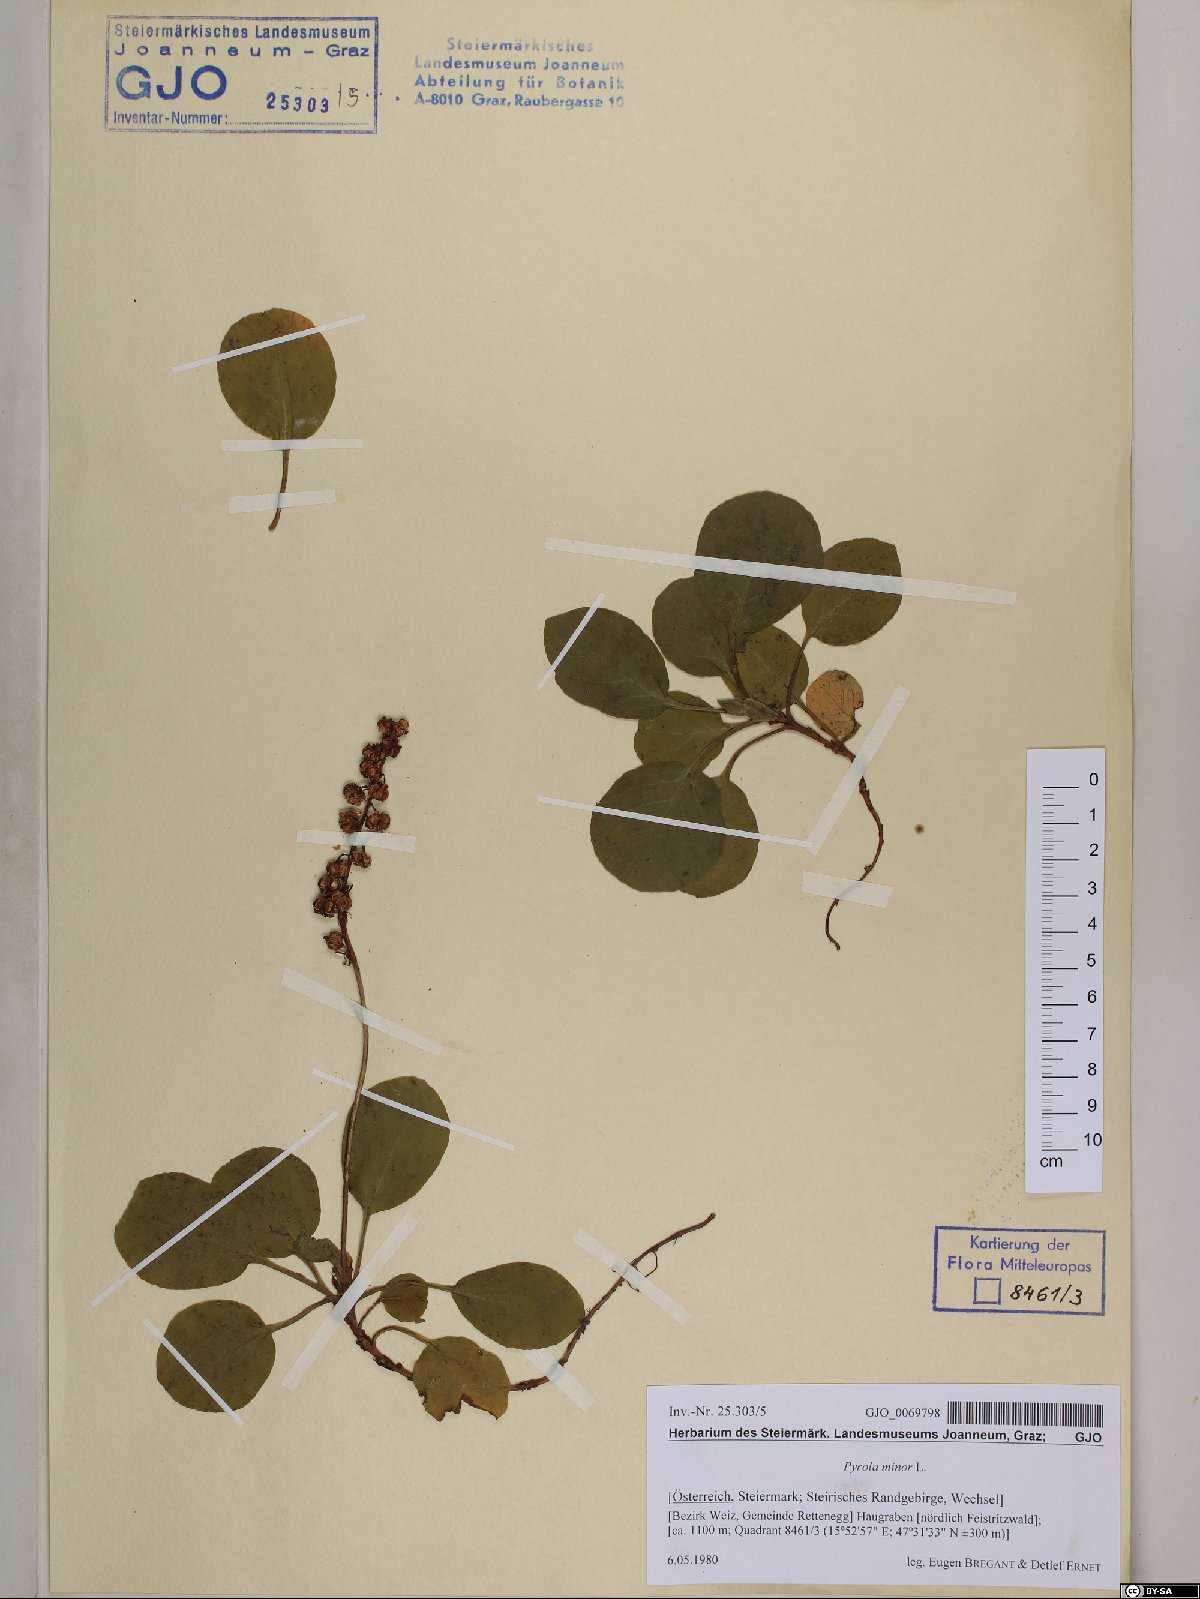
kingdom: Plantae
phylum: Tracheophyta
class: Magnoliopsida
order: Ericales
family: Ericaceae
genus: Pyrola
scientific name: Pyrola minor
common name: Common wintergreen
